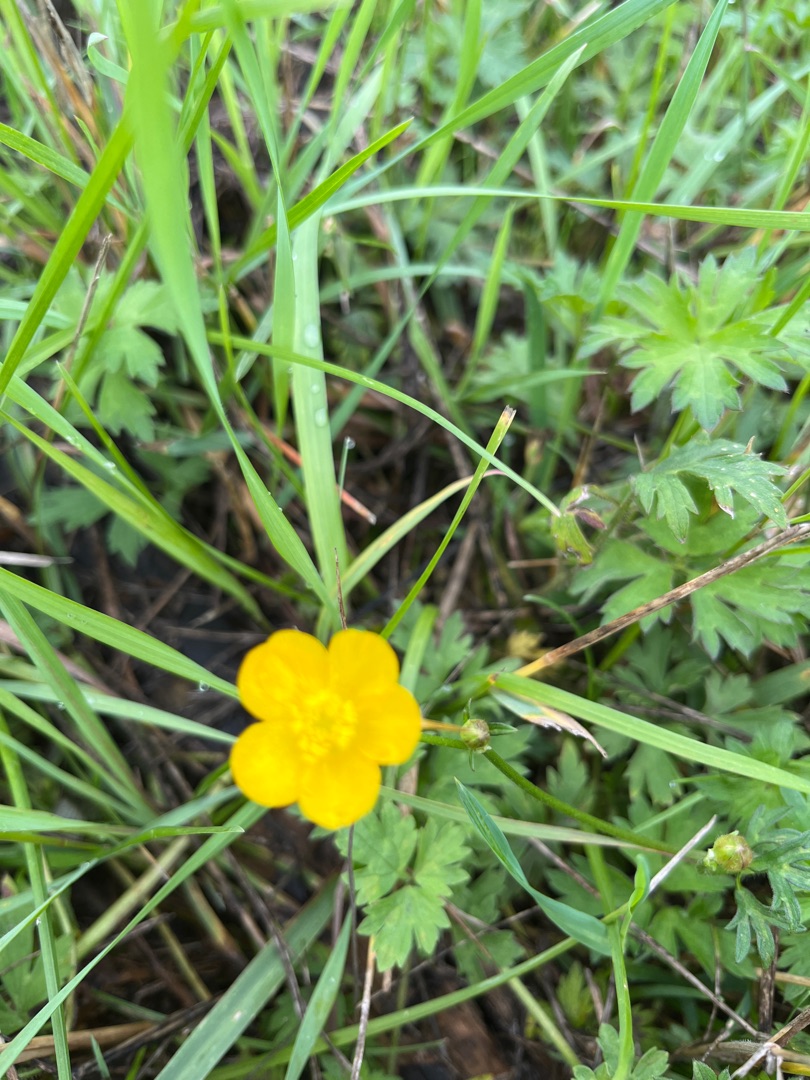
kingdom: Plantae
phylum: Tracheophyta
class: Magnoliopsida
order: Ranunculales
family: Ranunculaceae
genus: Ranunculus
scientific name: Ranunculus repens
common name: Lav ranunkel
